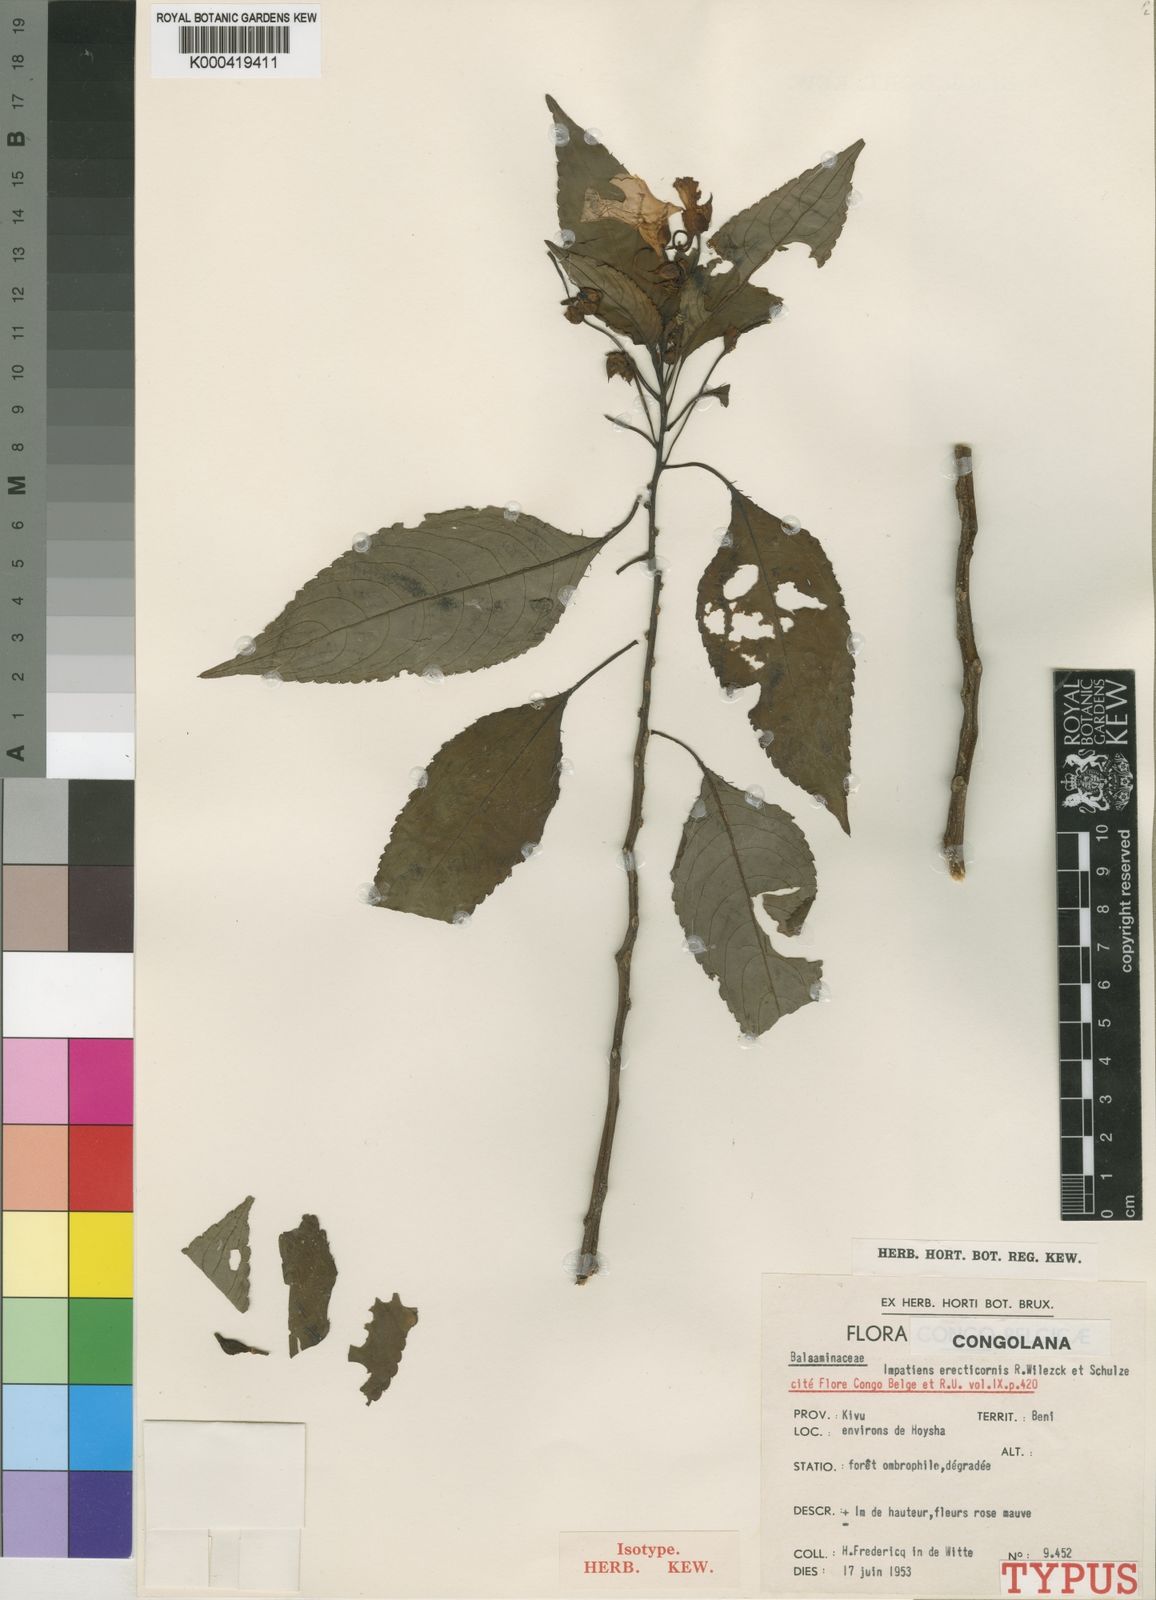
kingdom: Plantae
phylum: Tracheophyta
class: Magnoliopsida
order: Ericales
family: Balsaminaceae
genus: Impatiens
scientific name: Impatiens erecticornis
